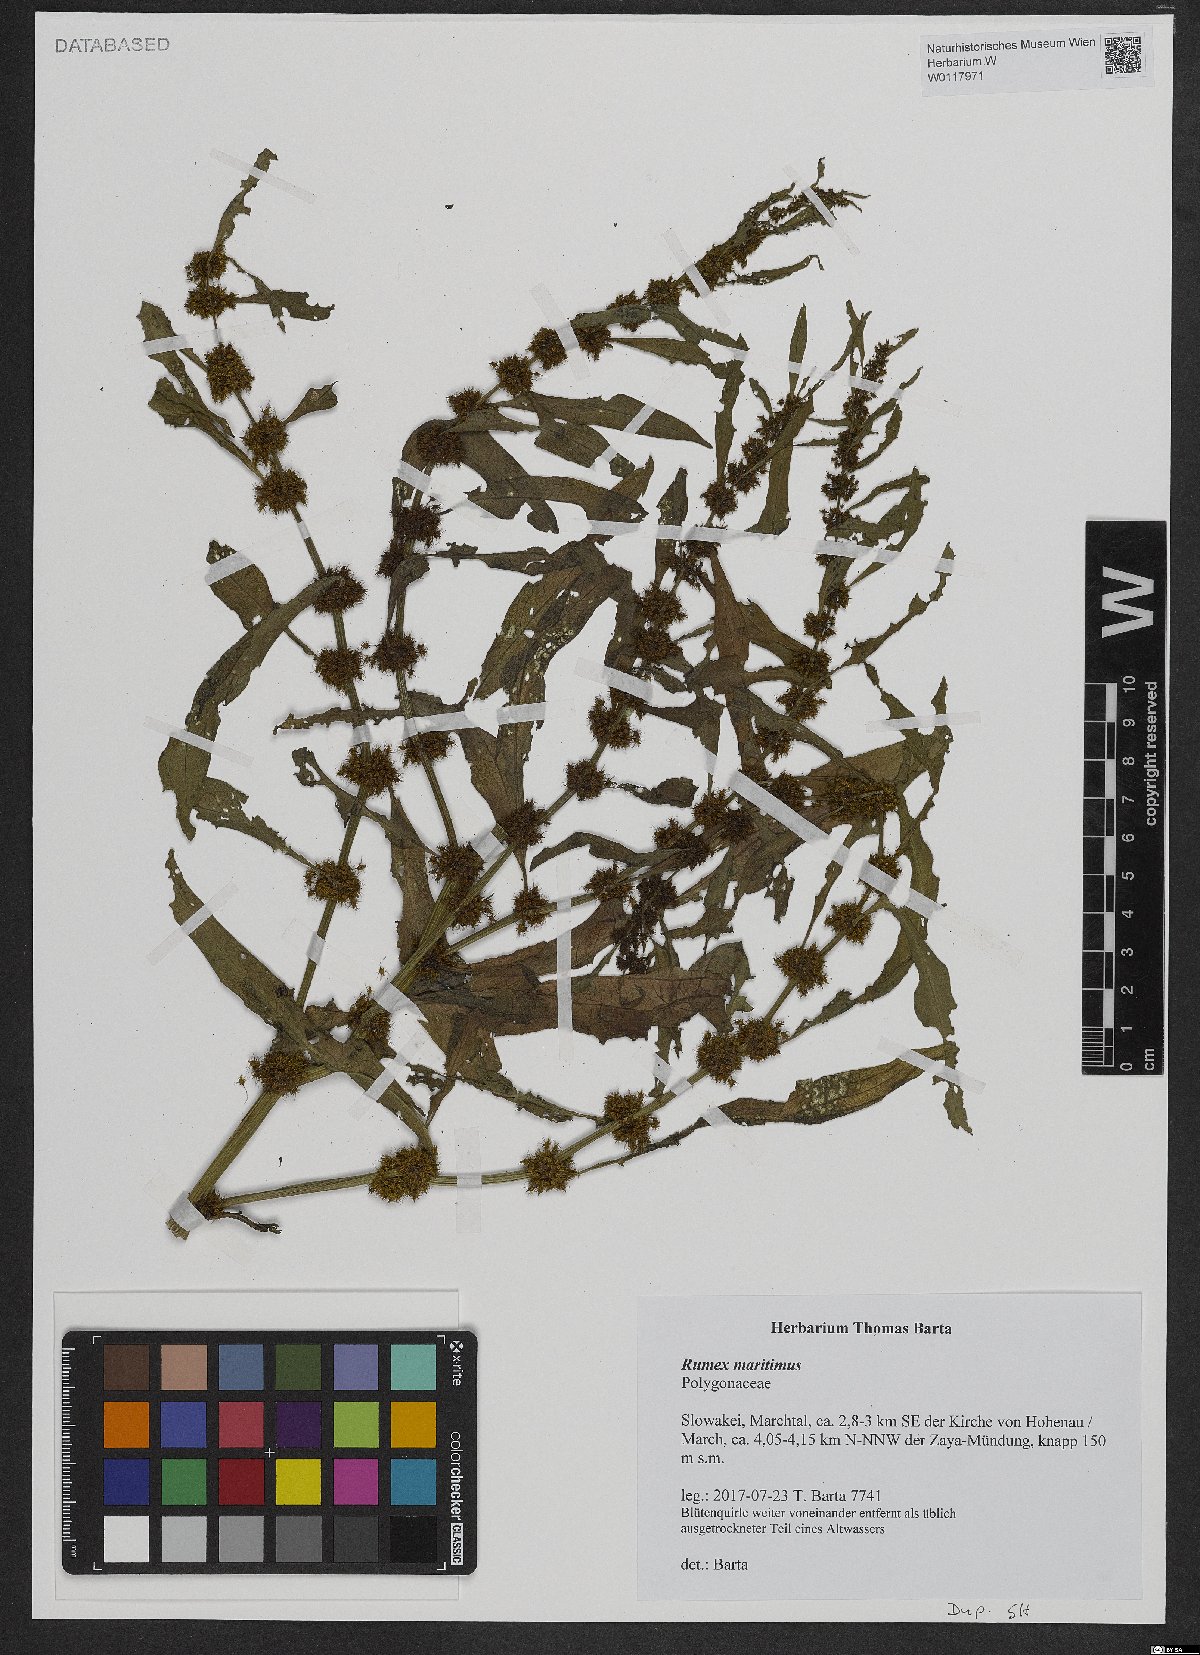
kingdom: Plantae
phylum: Tracheophyta
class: Magnoliopsida
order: Caryophyllales
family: Polygonaceae
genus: Rumex
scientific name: Rumex maritimus
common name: Golden dock
